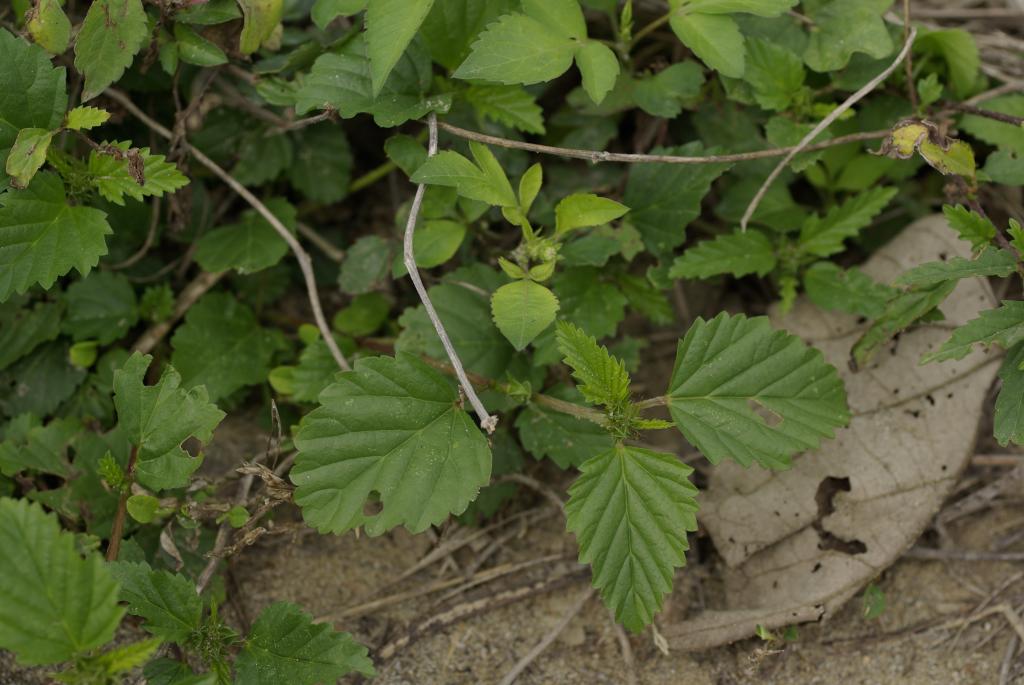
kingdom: Plantae
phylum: Tracheophyta
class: Magnoliopsida
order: Malvales
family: Malvaceae
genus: Malvastrum
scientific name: Malvastrum coromandelianum
